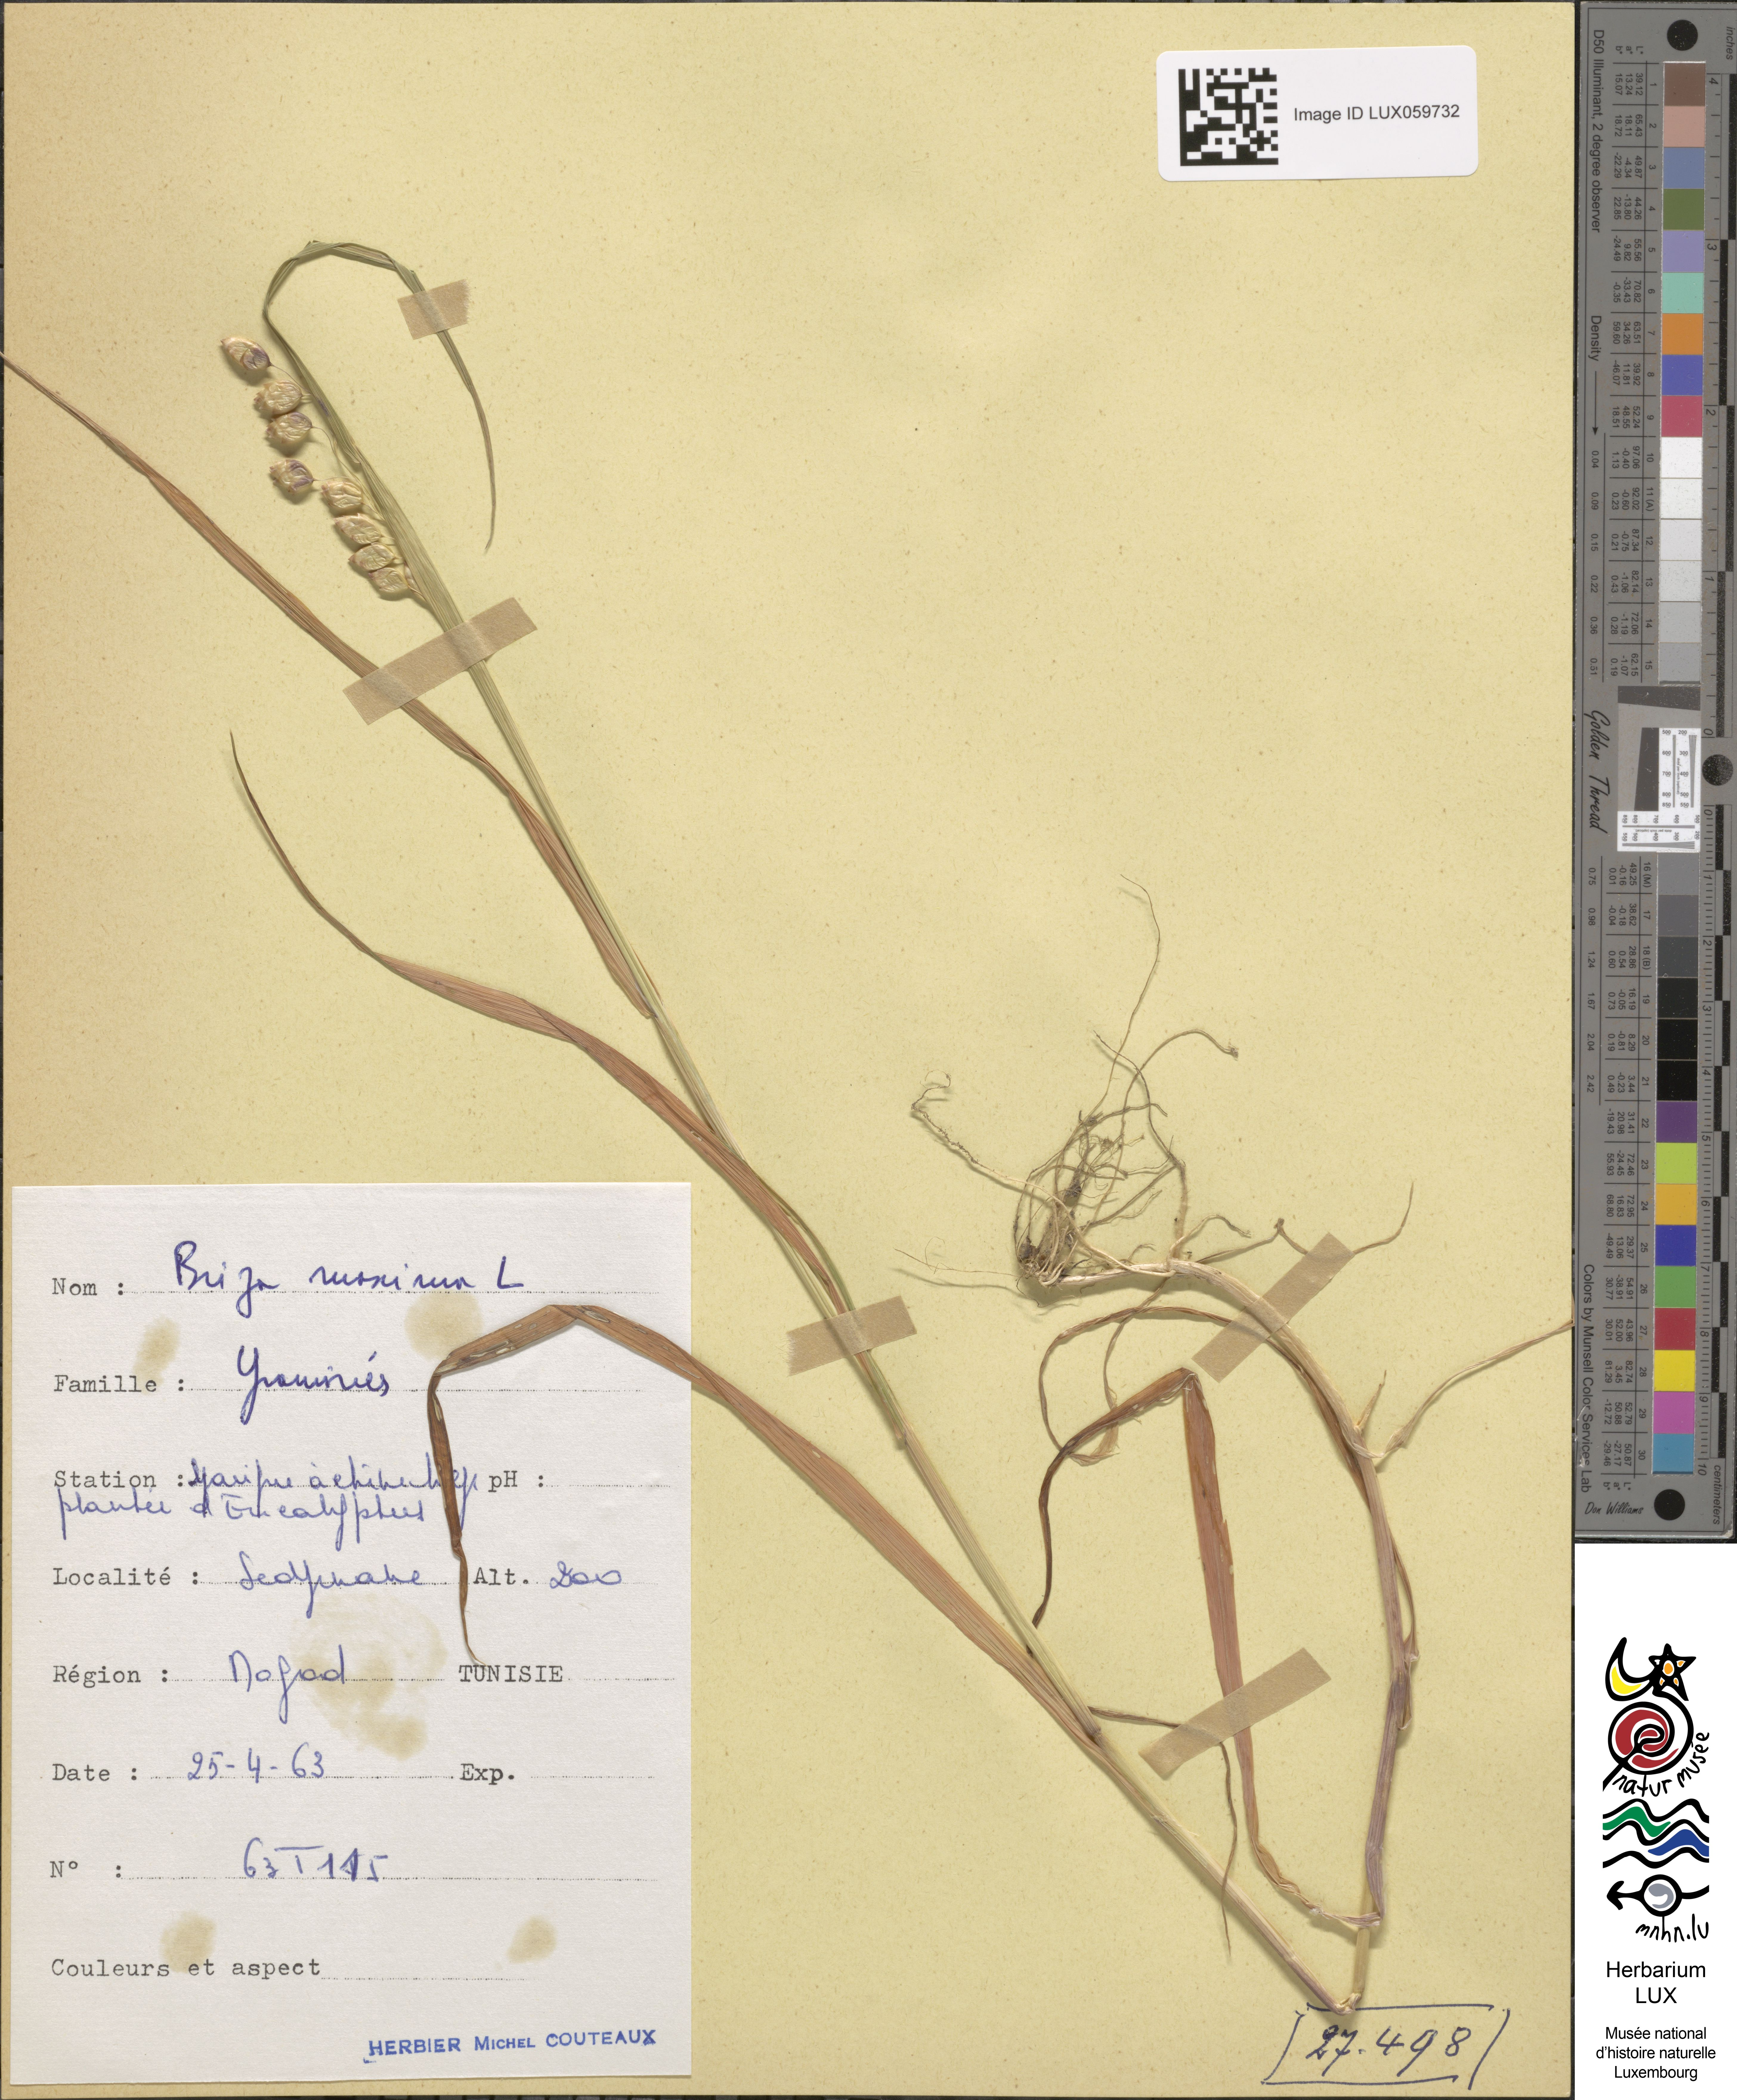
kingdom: Plantae
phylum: Tracheophyta
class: Liliopsida
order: Poales
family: Poaceae
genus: Briza
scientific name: Briza maxima
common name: Big quakinggrass
